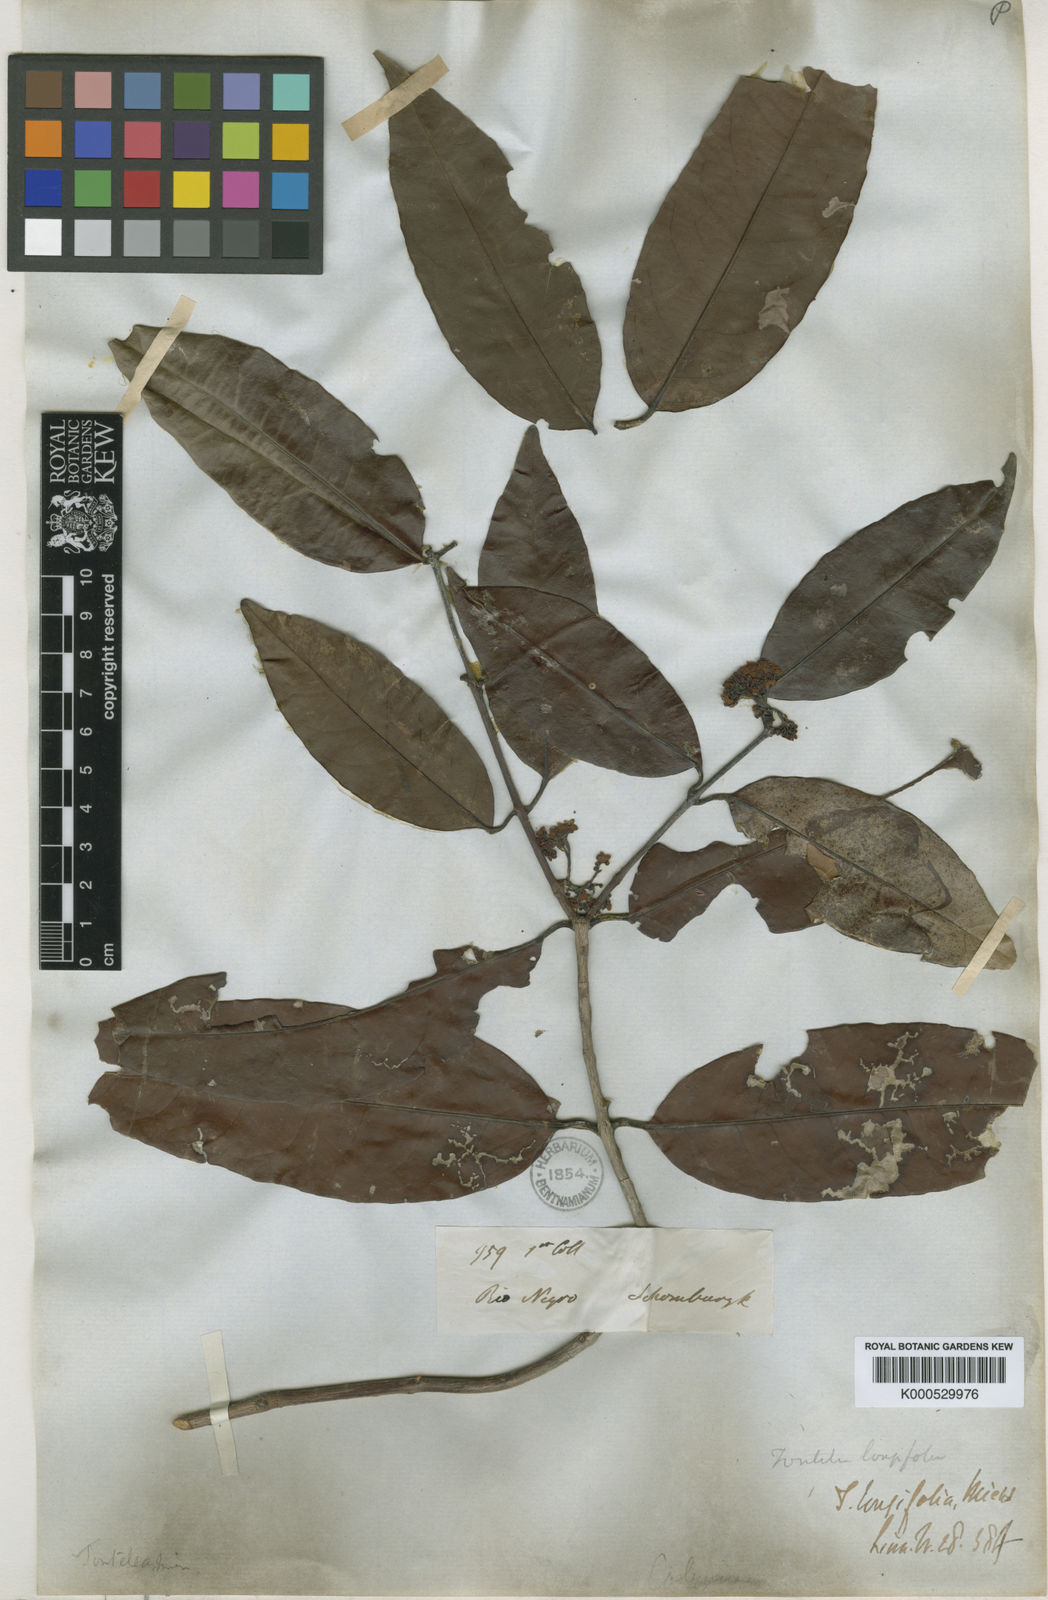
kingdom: Plantae
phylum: Tracheophyta
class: Magnoliopsida
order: Celastrales
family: Celastraceae
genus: Tontelea
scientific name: Tontelea attenuata
